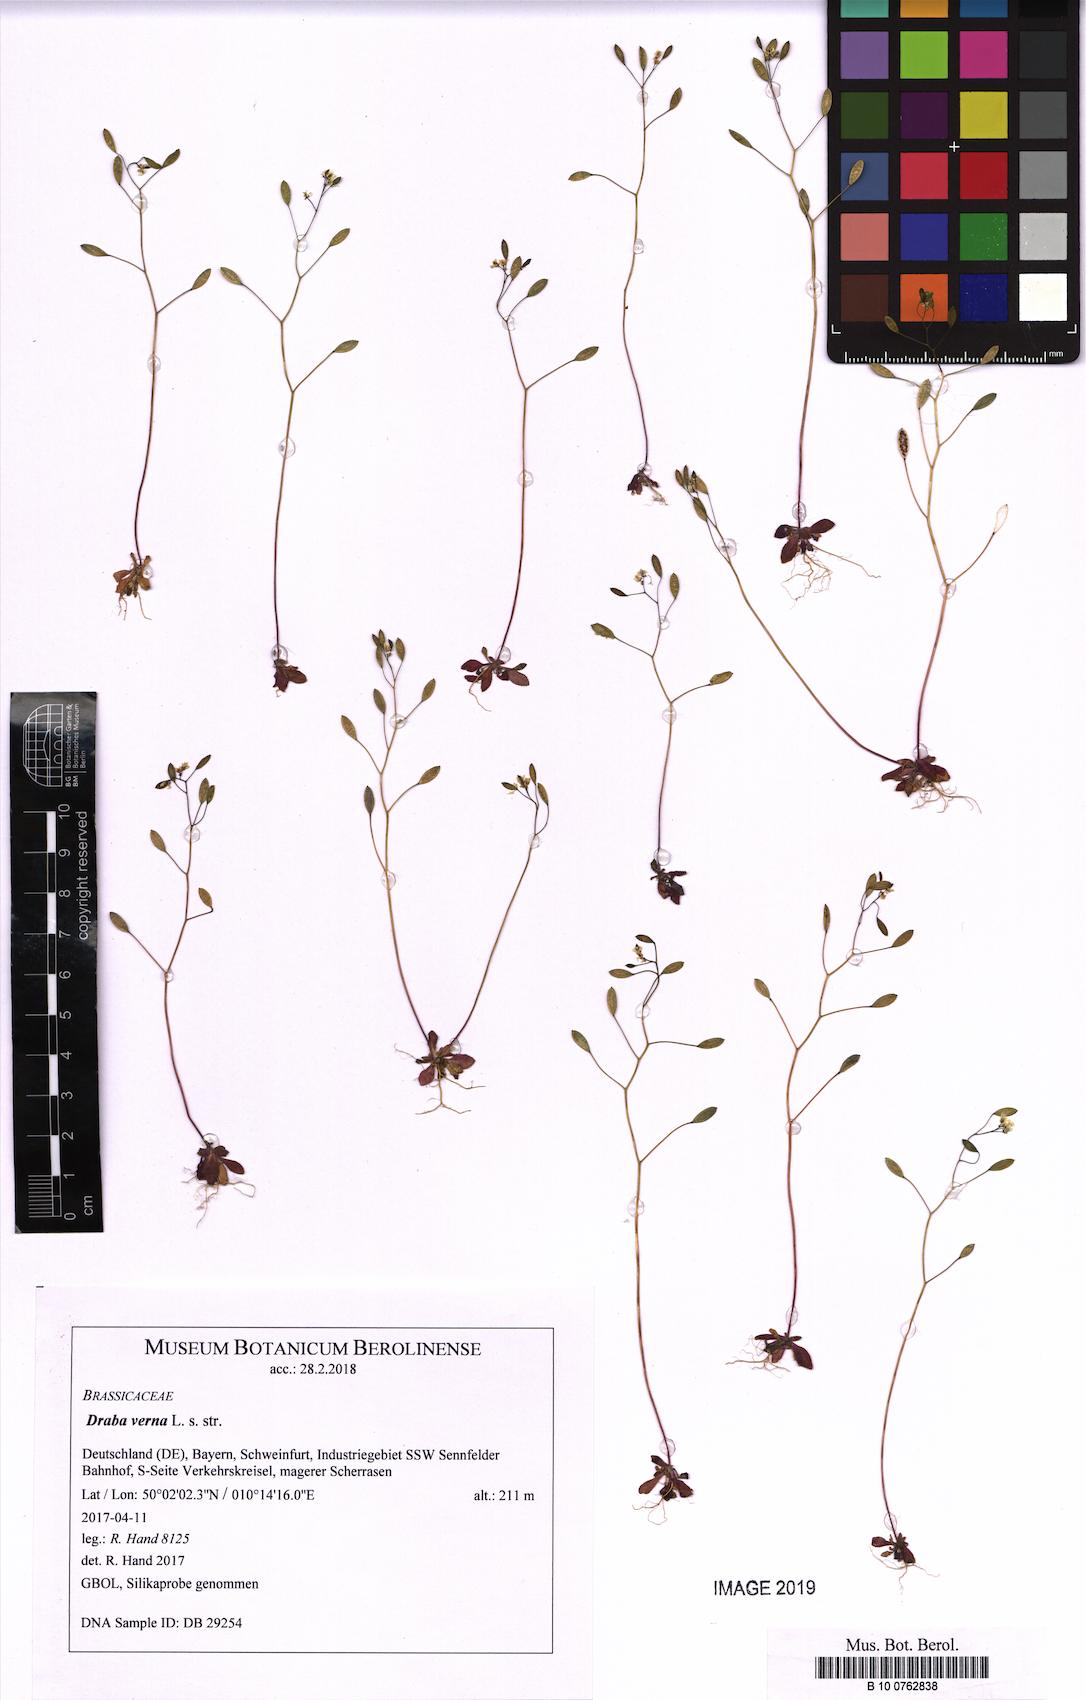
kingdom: Plantae
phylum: Tracheophyta
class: Magnoliopsida
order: Brassicales
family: Brassicaceae
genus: Draba
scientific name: Draba verna
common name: Spring draba
